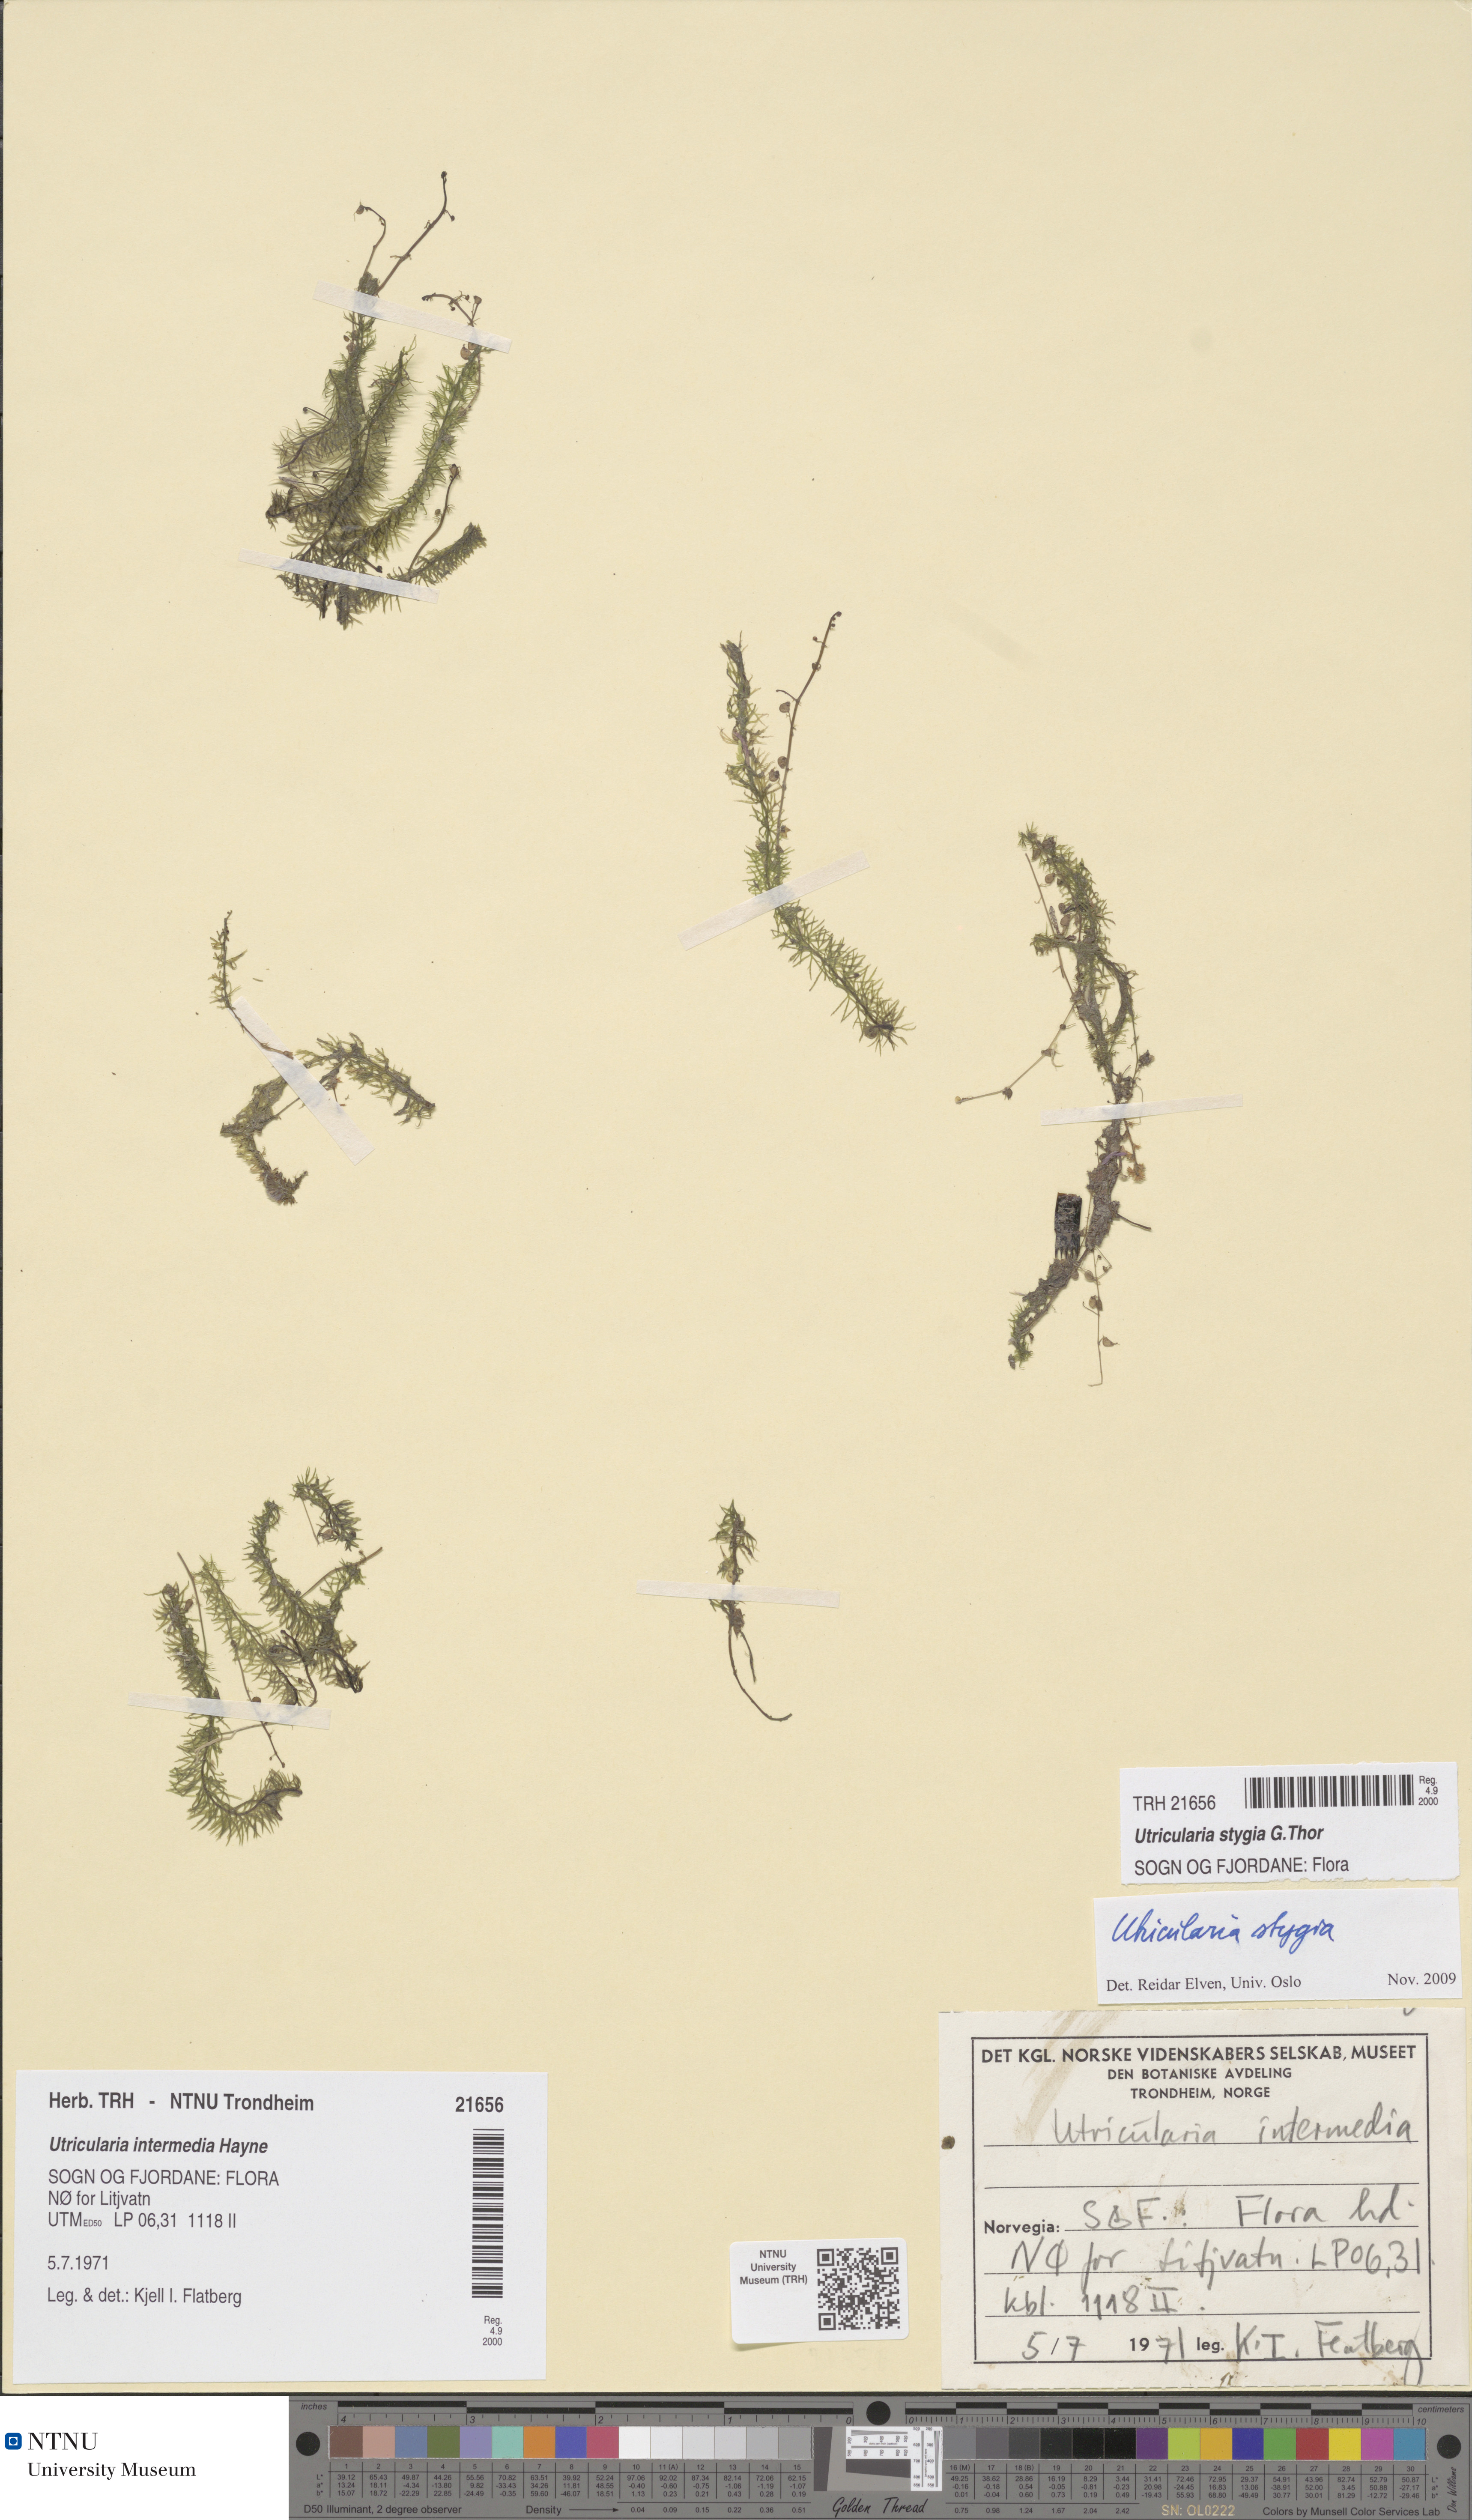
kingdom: Plantae
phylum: Tracheophyta
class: Magnoliopsida
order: Lamiales
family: Lentibulariaceae
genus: Utricularia
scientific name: Utricularia ochroleuca
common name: Pale bladderwort
